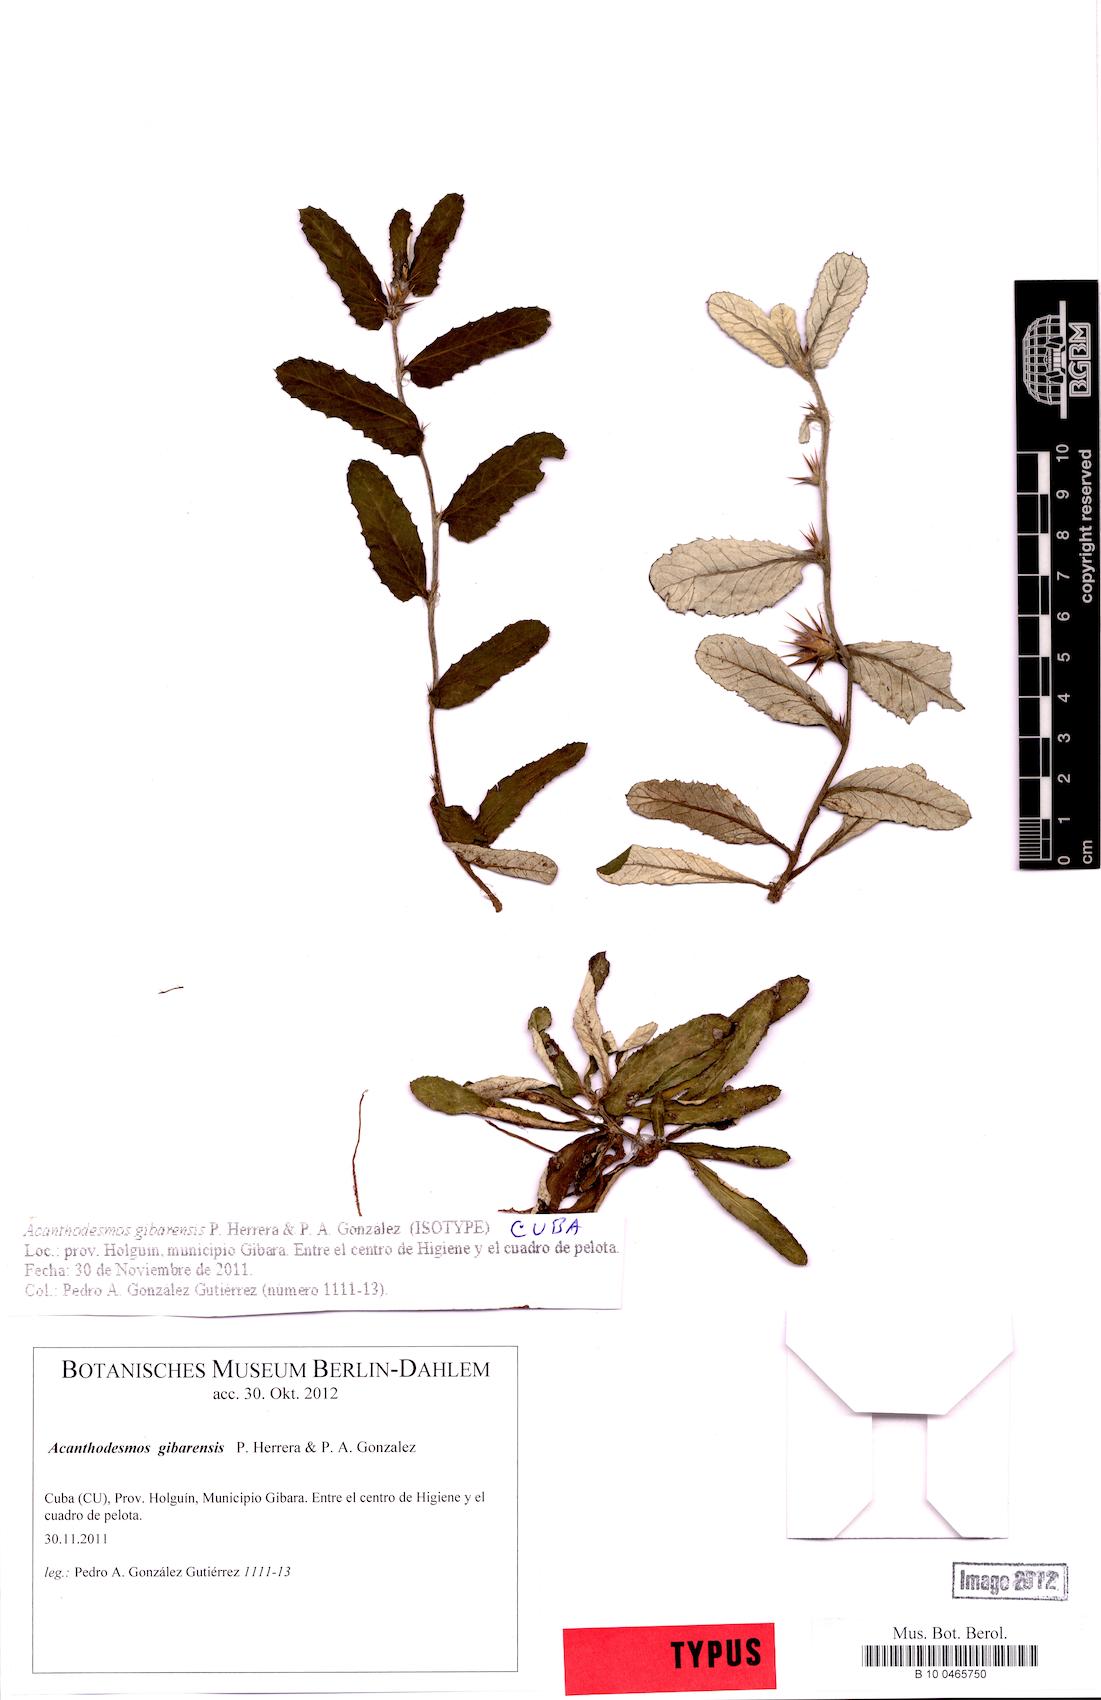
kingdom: Plantae
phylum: Tracheophyta
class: Magnoliopsida
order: Asterales
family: Asteraceae
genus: Acanthodesmos
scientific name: Acanthodesmos gibarensis
